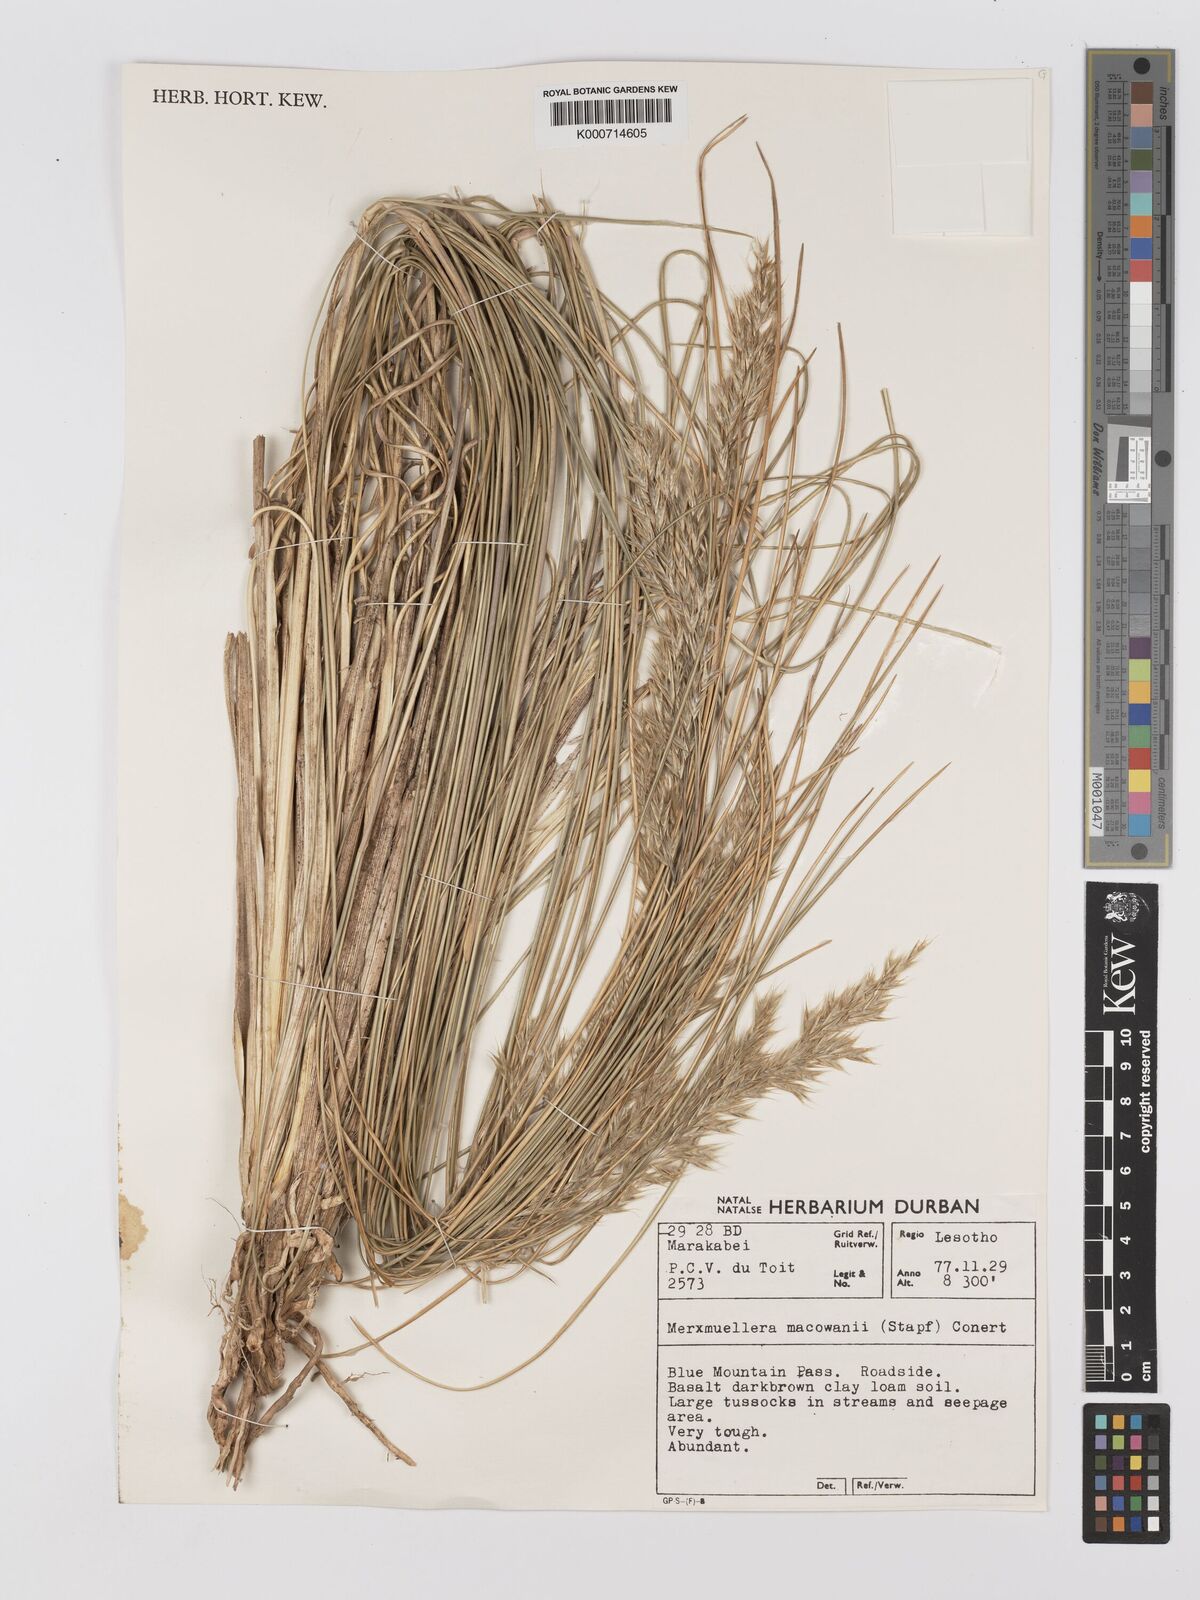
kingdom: Plantae
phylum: Tracheophyta
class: Liliopsida
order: Poales
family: Poaceae
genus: Rytidosperma
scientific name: Rytidosperma
